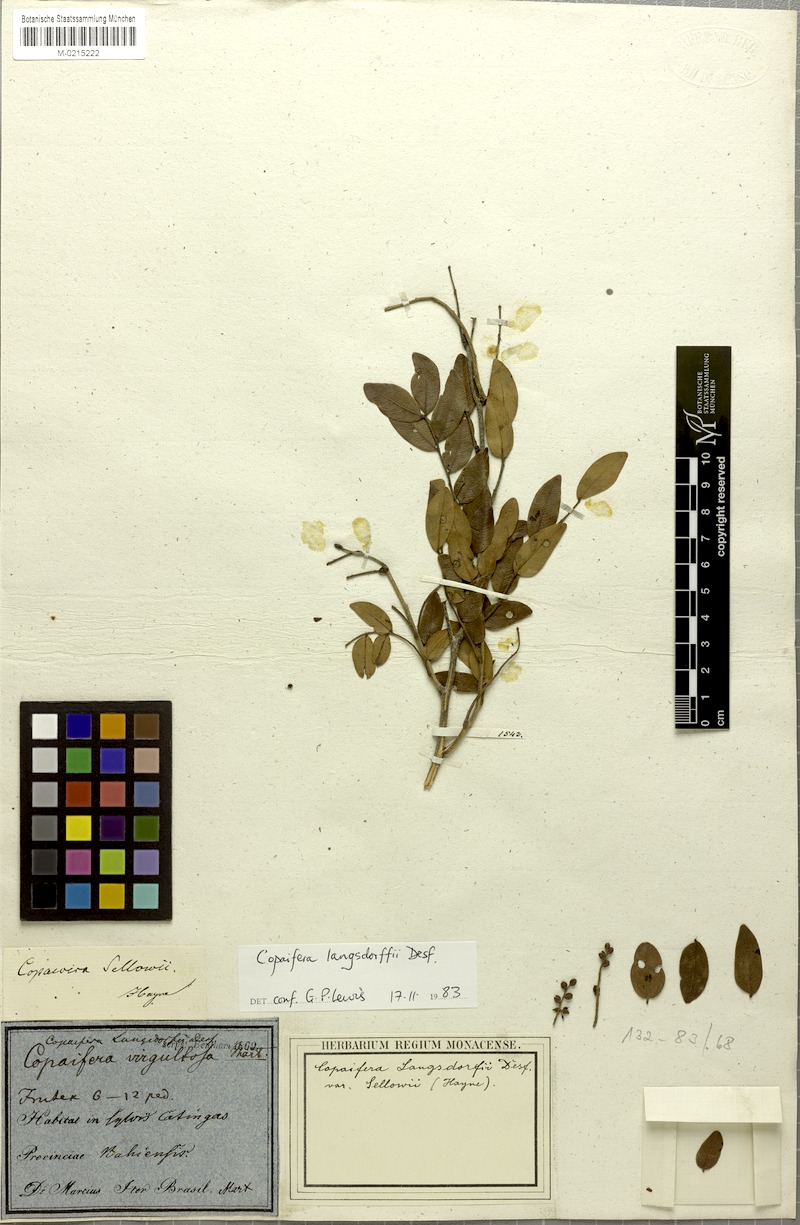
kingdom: Plantae
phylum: Tracheophyta
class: Magnoliopsida
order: Fabales
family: Fabaceae
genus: Copaifera
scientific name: Copaifera langsdorffii
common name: Brazilian diesel tree
